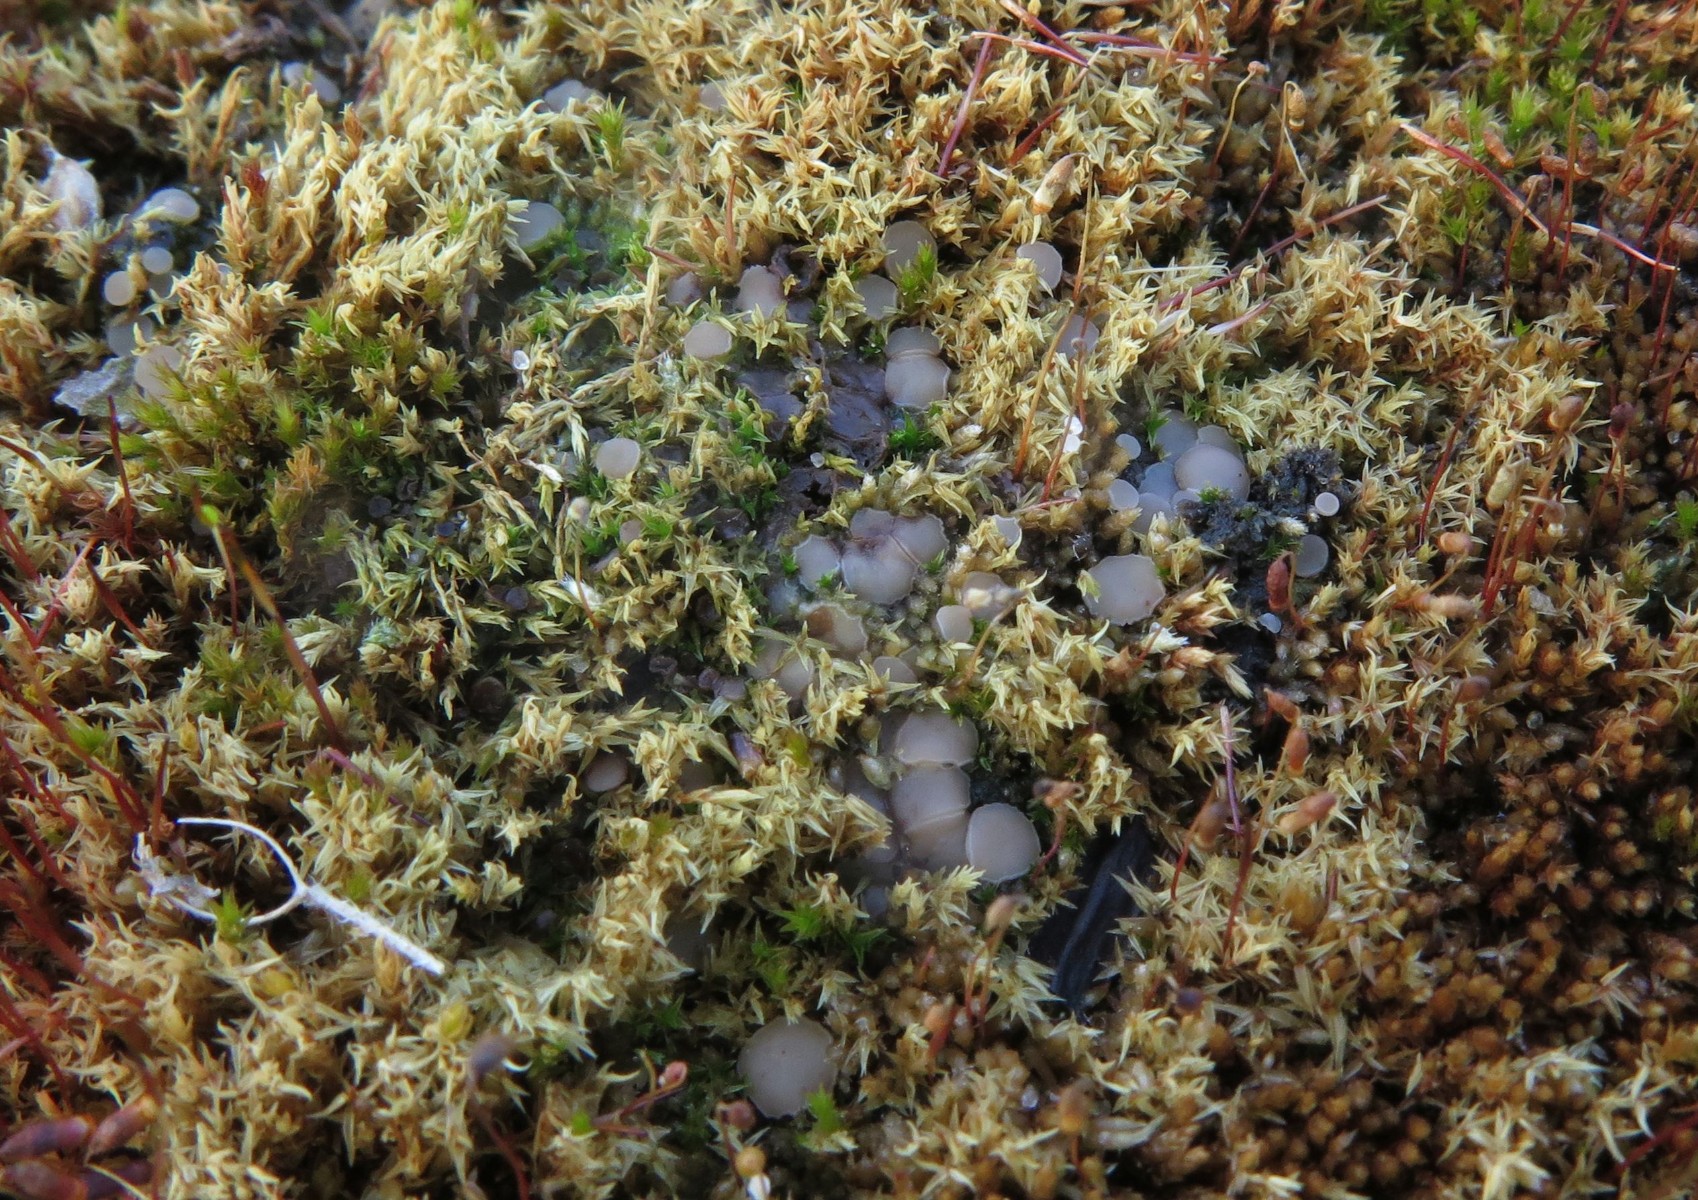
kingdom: Fungi
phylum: Ascomycota
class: Leotiomycetes
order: Helotiales
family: Helotiaceae
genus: Bryoscyphus
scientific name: Bryoscyphus dicrani
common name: bladmos-stilkskive
